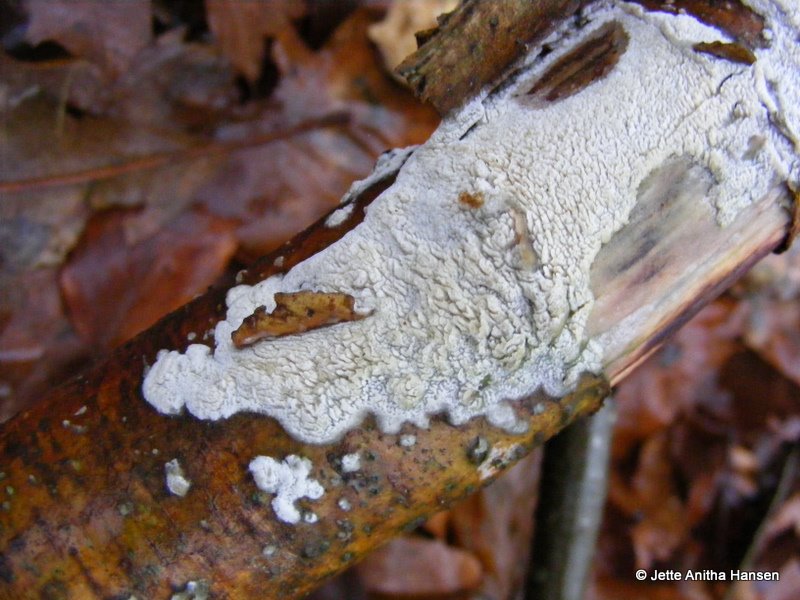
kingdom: Fungi
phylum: Basidiomycota
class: Agaricomycetes
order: Hymenochaetales
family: Schizoporaceae
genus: Schizopora
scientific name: Schizopora paradoxa
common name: hvid tandsvamp
